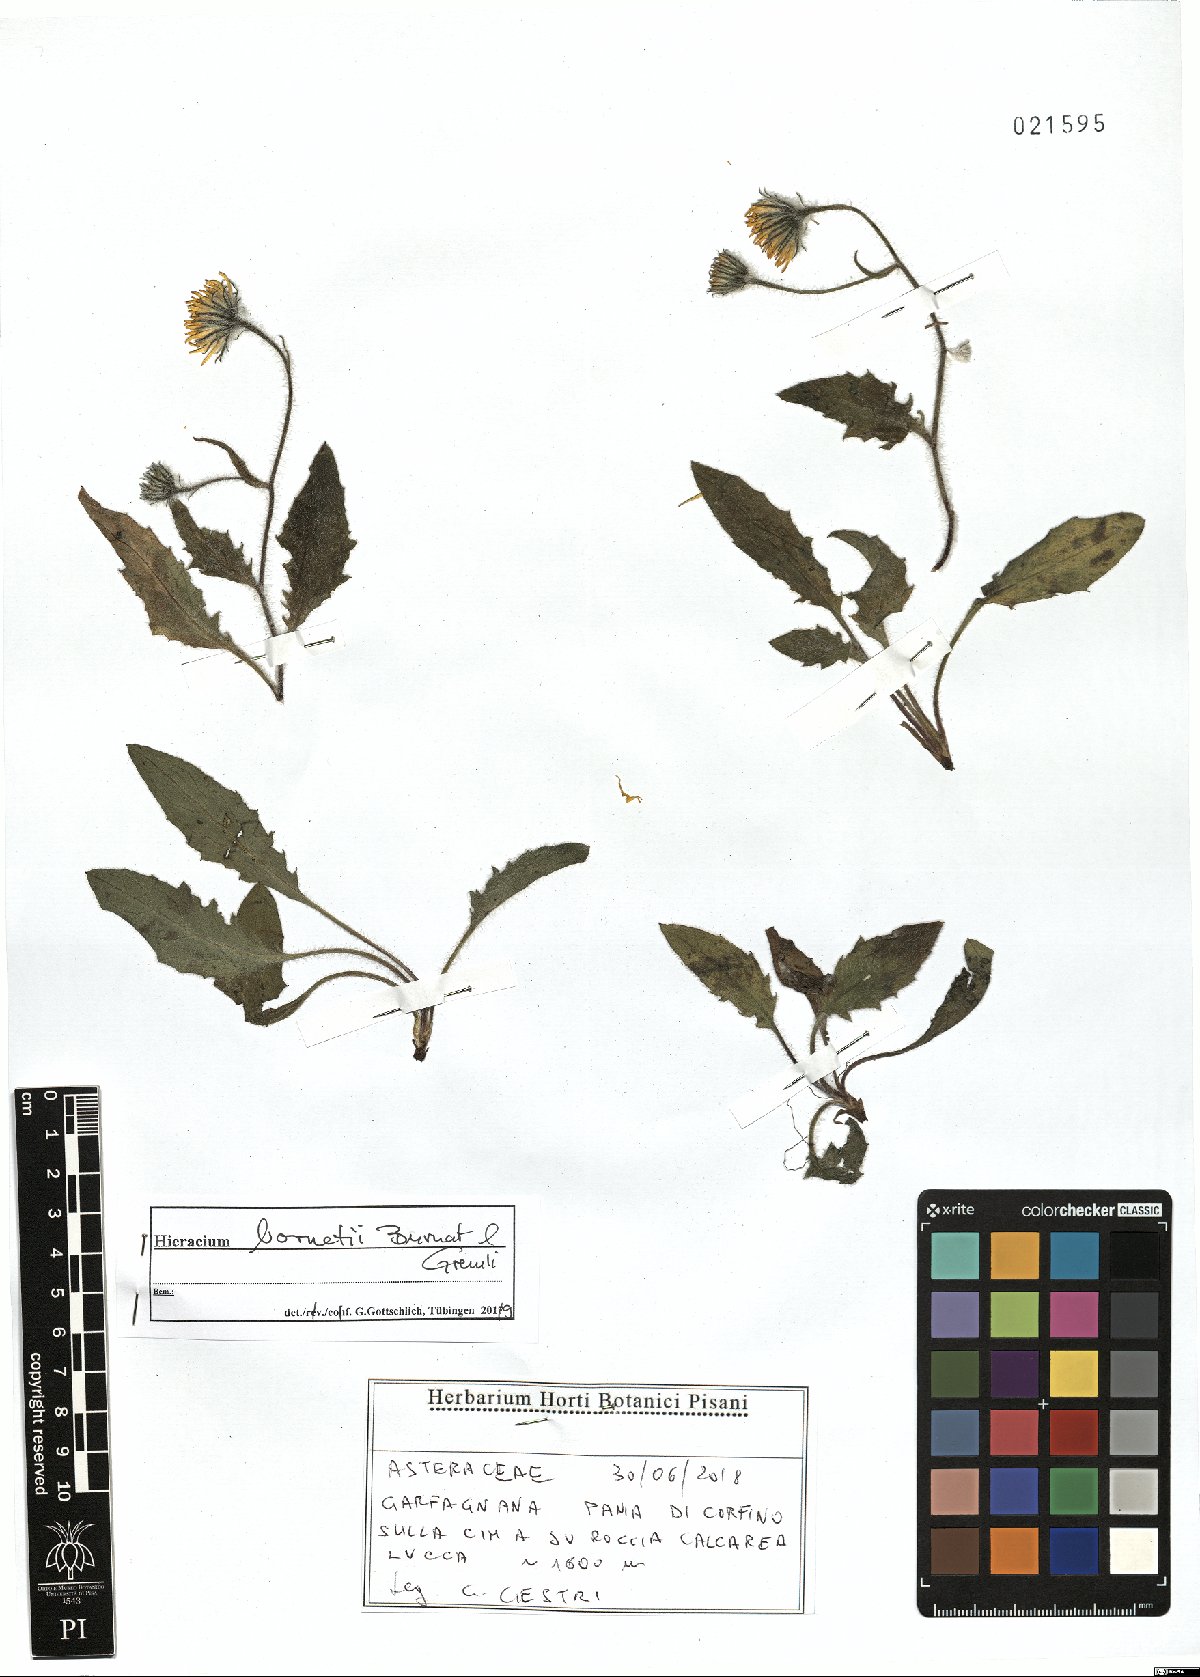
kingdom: Plantae
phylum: Tracheophyta
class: Magnoliopsida
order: Asterales
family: Asteraceae
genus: Hieracium
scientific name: Hieracium bornetii
